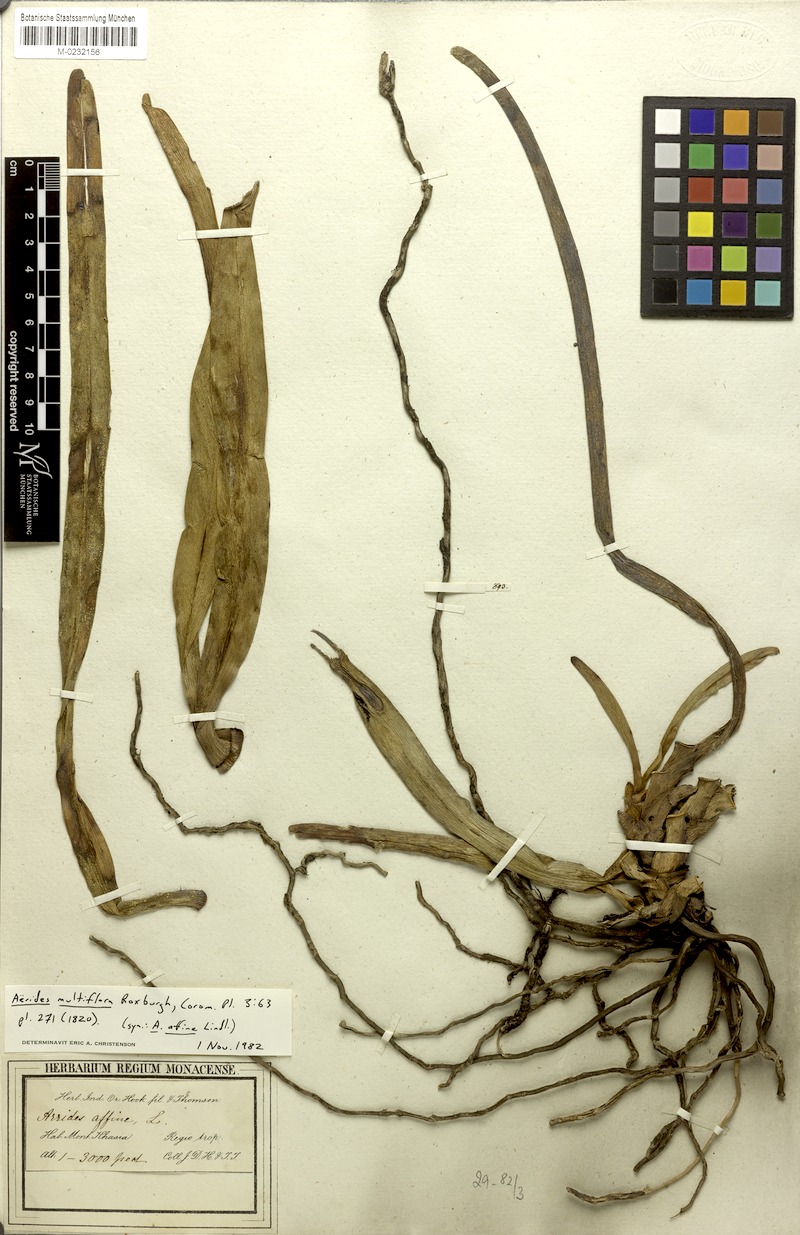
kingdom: Plantae
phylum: Tracheophyta
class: Liliopsida
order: Asparagales
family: Orchidaceae
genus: Aerides
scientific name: Aerides multiflora
